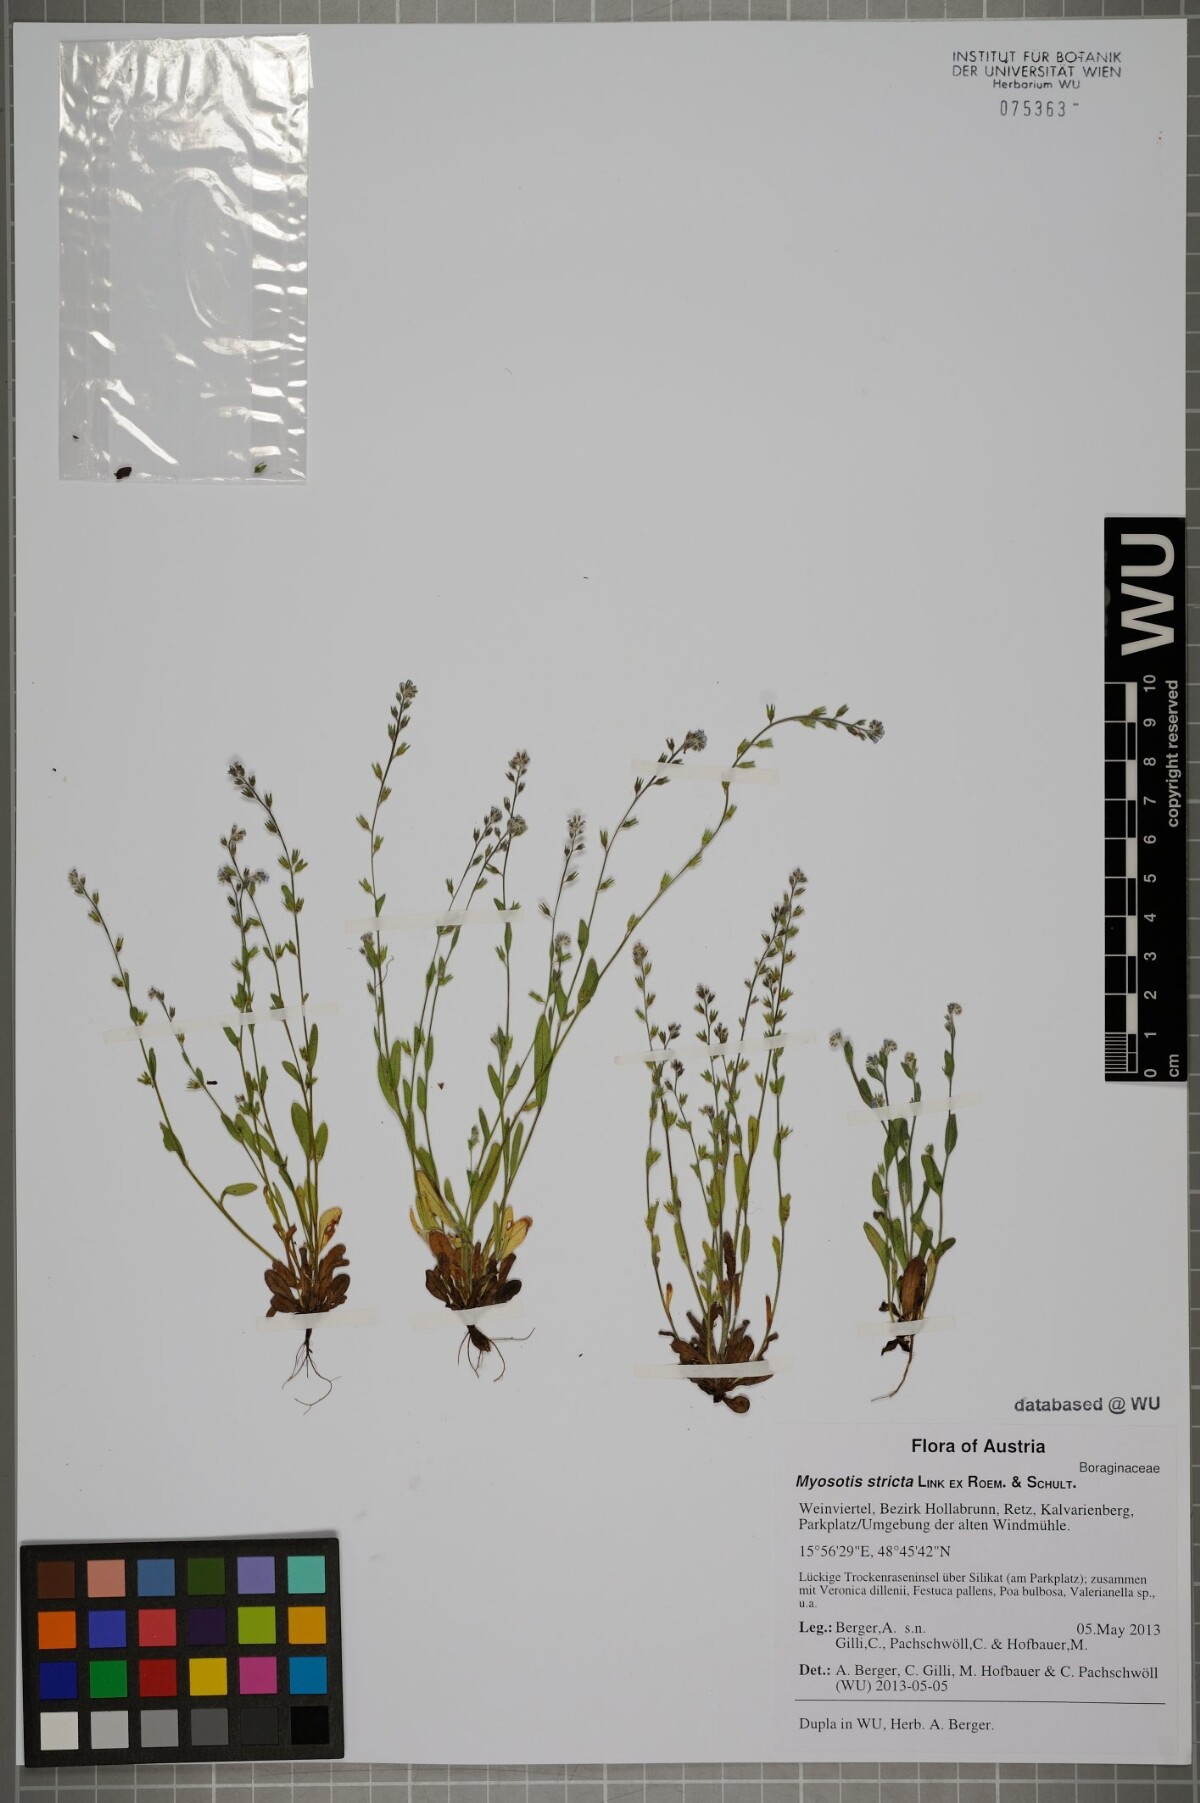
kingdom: Plantae
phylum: Tracheophyta
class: Magnoliopsida
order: Boraginales
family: Boraginaceae
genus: Myosotis
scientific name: Myosotis stricta
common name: Strict forget-me-not
